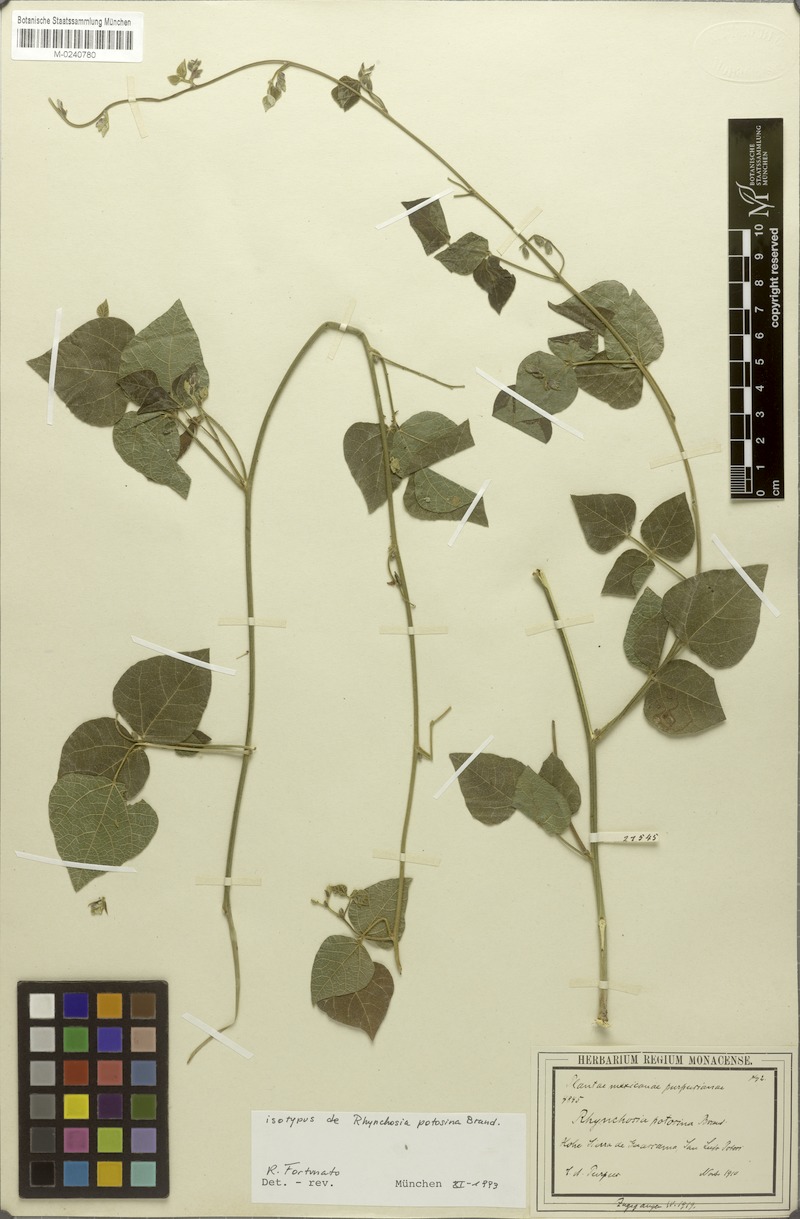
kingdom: Plantae
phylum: Tracheophyta
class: Magnoliopsida
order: Fabales
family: Fabaceae
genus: Rhynchosia
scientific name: Rhynchosia potosina
